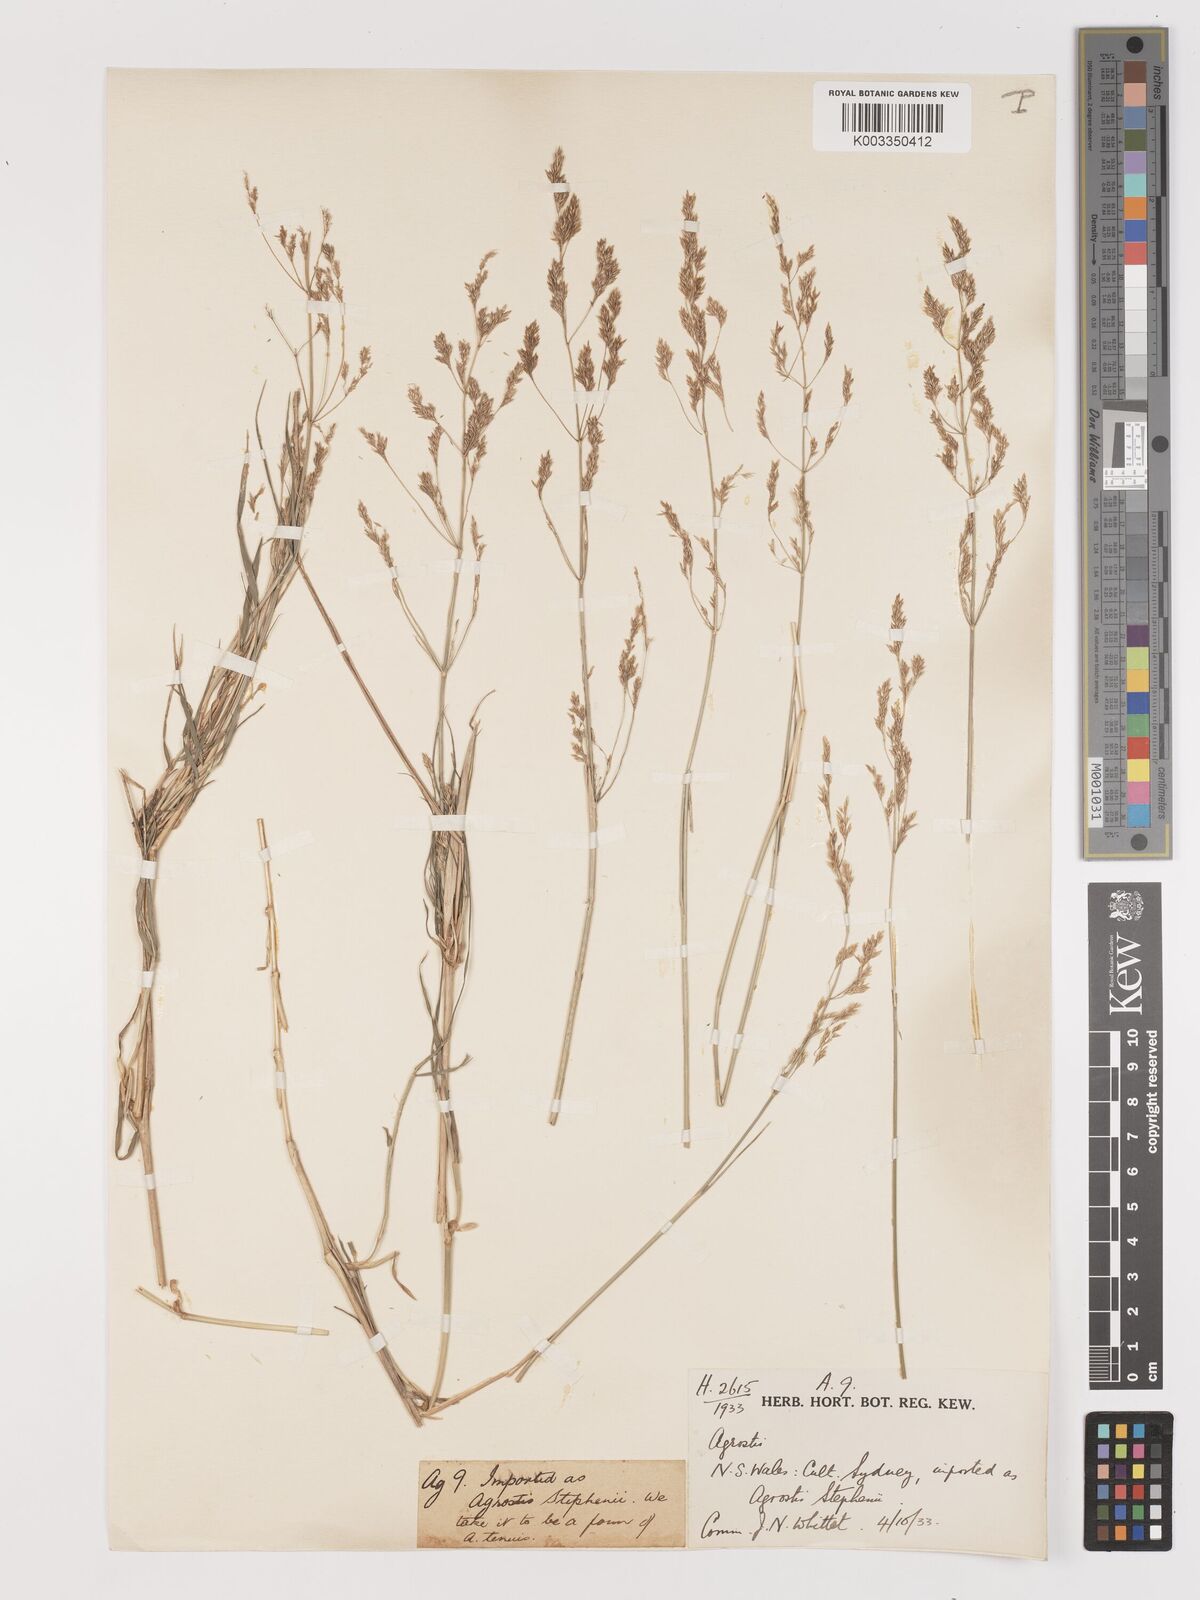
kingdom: Plantae
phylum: Tracheophyta
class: Liliopsida
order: Poales
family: Poaceae
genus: Agrostis
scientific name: Agrostis capillaris
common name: Colonial bentgrass
